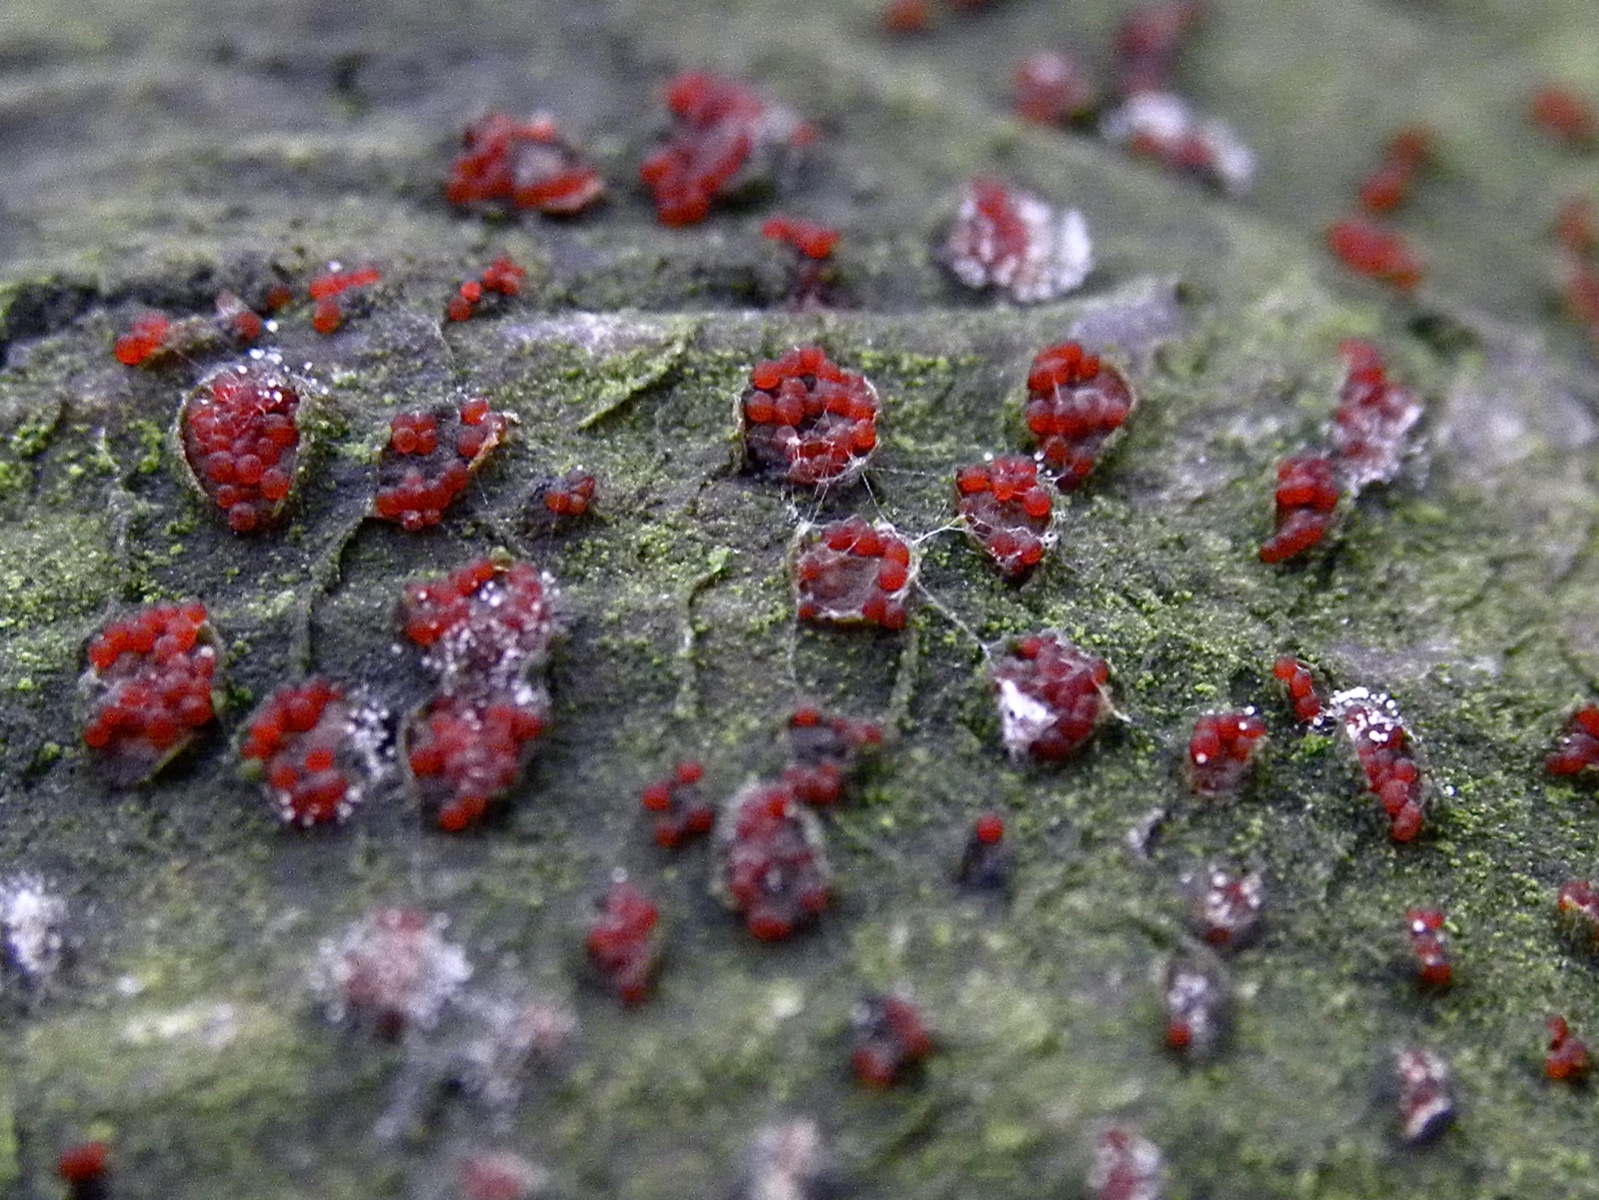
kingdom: Fungi
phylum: Ascomycota
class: Sordariomycetes
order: Hypocreales
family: Nectriaceae
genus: Neonectria
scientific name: Neonectria coccinea
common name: bøgebark-cinnobersvamp
